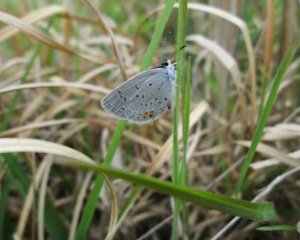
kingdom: Animalia
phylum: Arthropoda
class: Insecta
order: Lepidoptera
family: Lycaenidae
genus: Elkalyce
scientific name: Elkalyce comyntas
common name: Eastern Tailed-Blue
